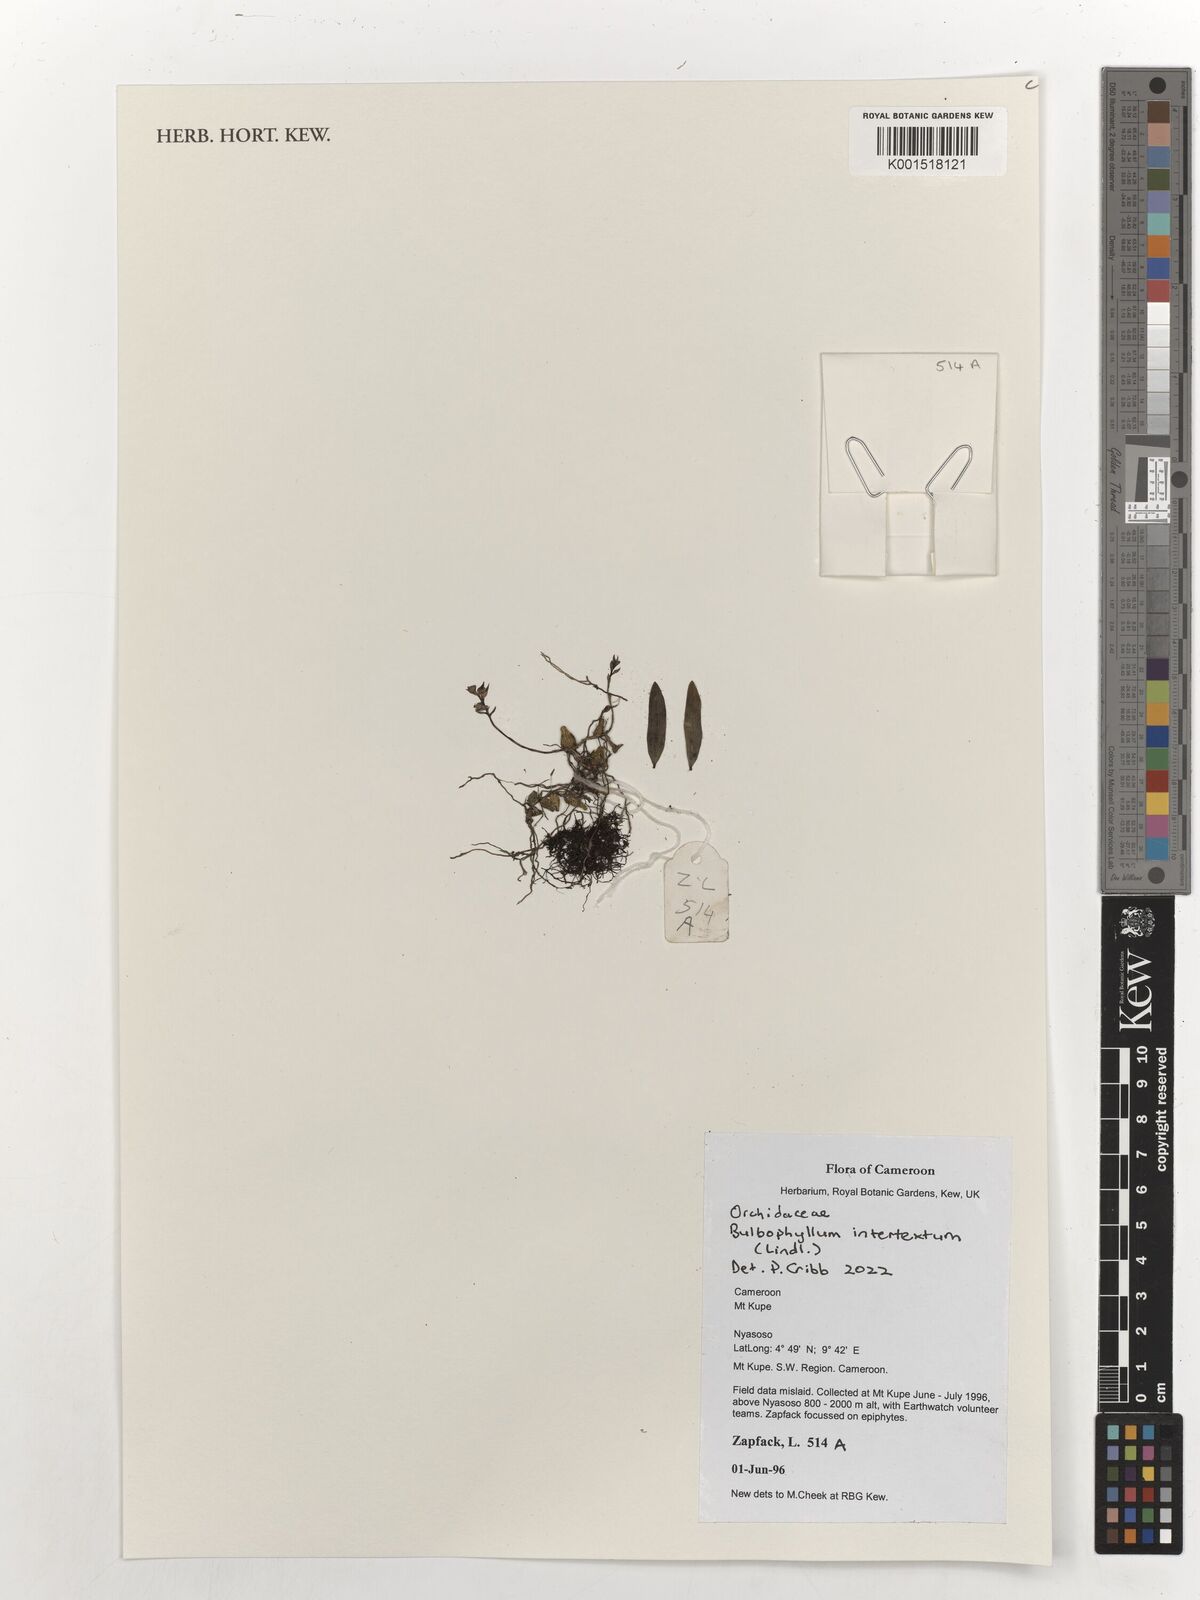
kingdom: Plantae
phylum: Tracheophyta
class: Liliopsida
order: Asparagales
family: Orchidaceae
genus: Bulbophyllum
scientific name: Bulbophyllum intertextum
